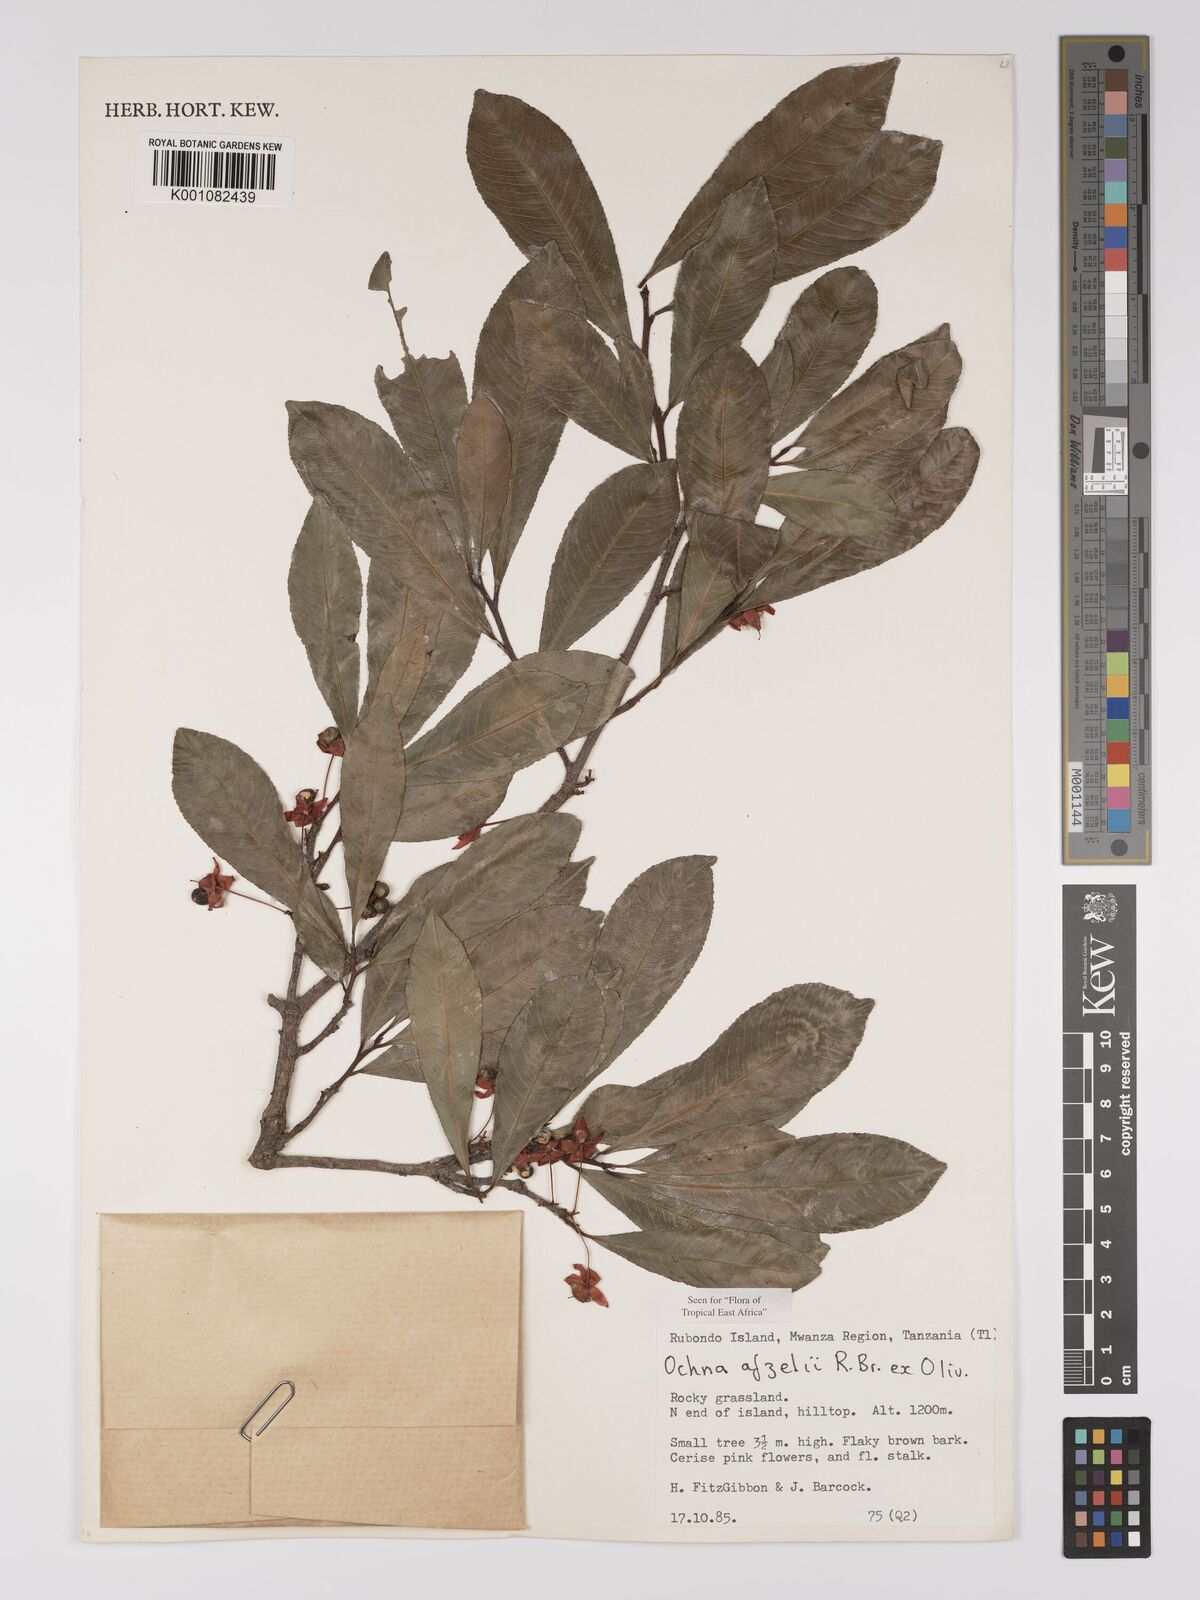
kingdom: Plantae
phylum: Tracheophyta
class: Magnoliopsida
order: Malpighiales
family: Ochnaceae
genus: Ochna
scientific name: Ochna afzelii
